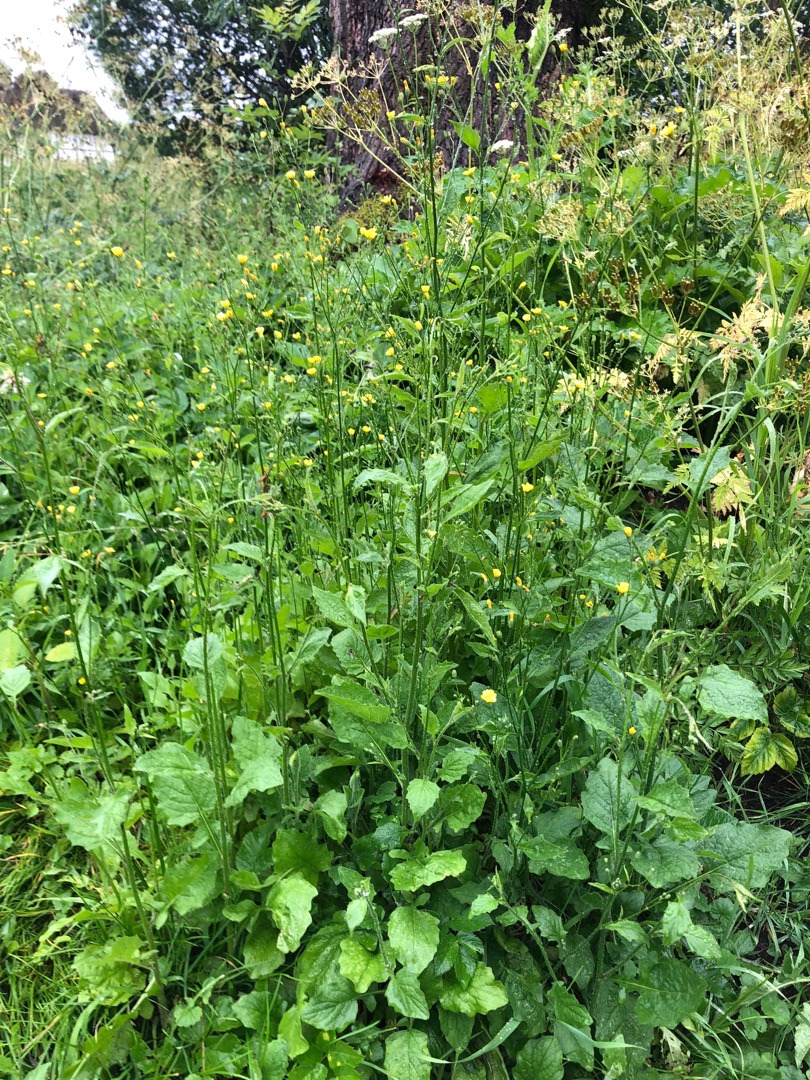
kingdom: Plantae
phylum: Tracheophyta
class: Magnoliopsida
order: Asterales
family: Asteraceae
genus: Lapsana
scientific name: Lapsana communis
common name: Haremad
